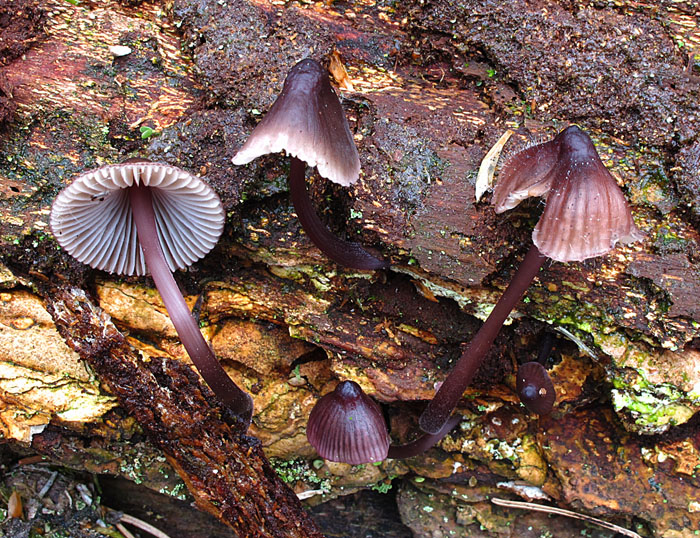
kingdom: Fungi
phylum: Basidiomycota
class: Agaricomycetes
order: Agaricales
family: Mycenaceae
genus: Mycena
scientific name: Mycena purpureofusca
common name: purpur-huesvamp
